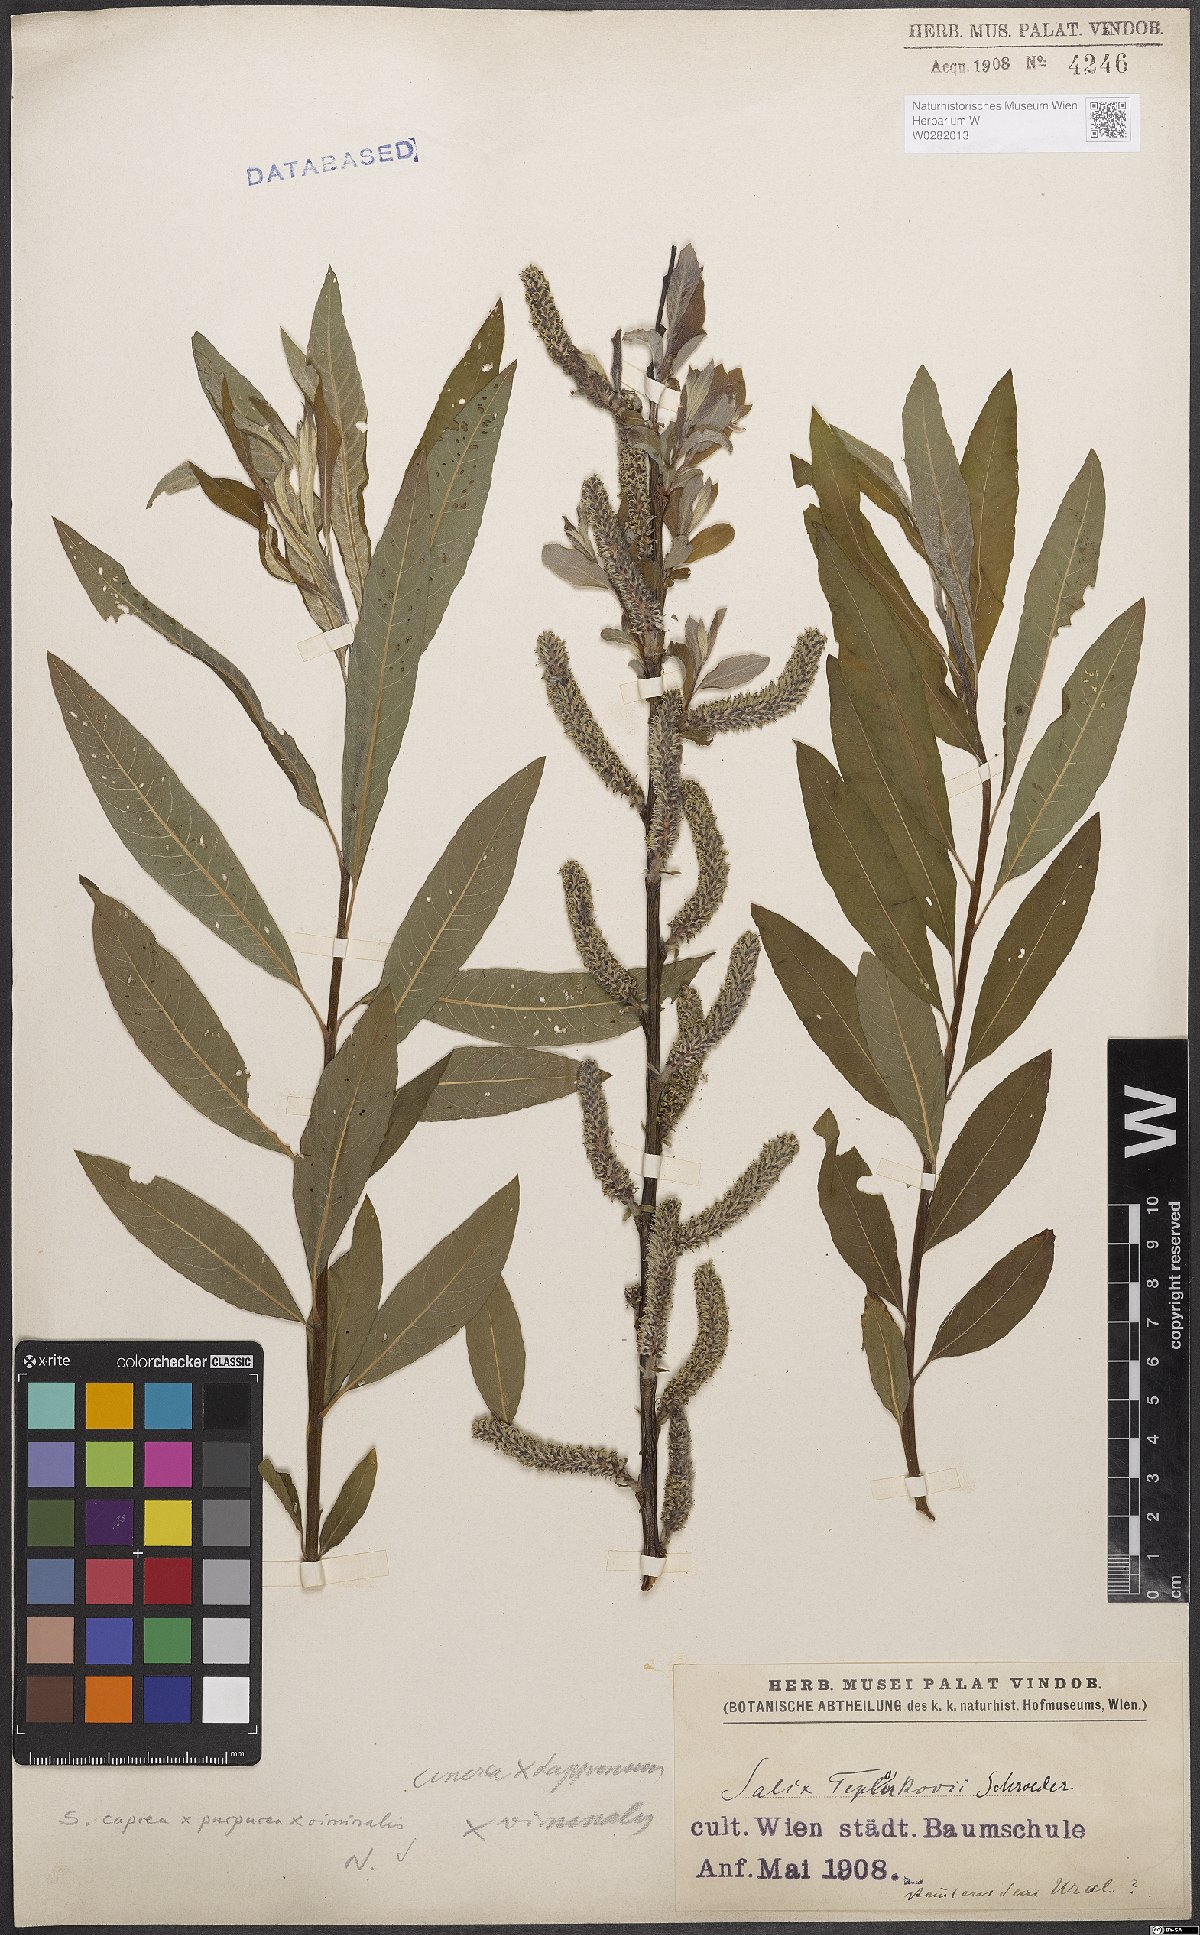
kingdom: Plantae
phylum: Tracheophyta
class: Magnoliopsida
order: Malpighiales
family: Salicaceae
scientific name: Salicaceae
